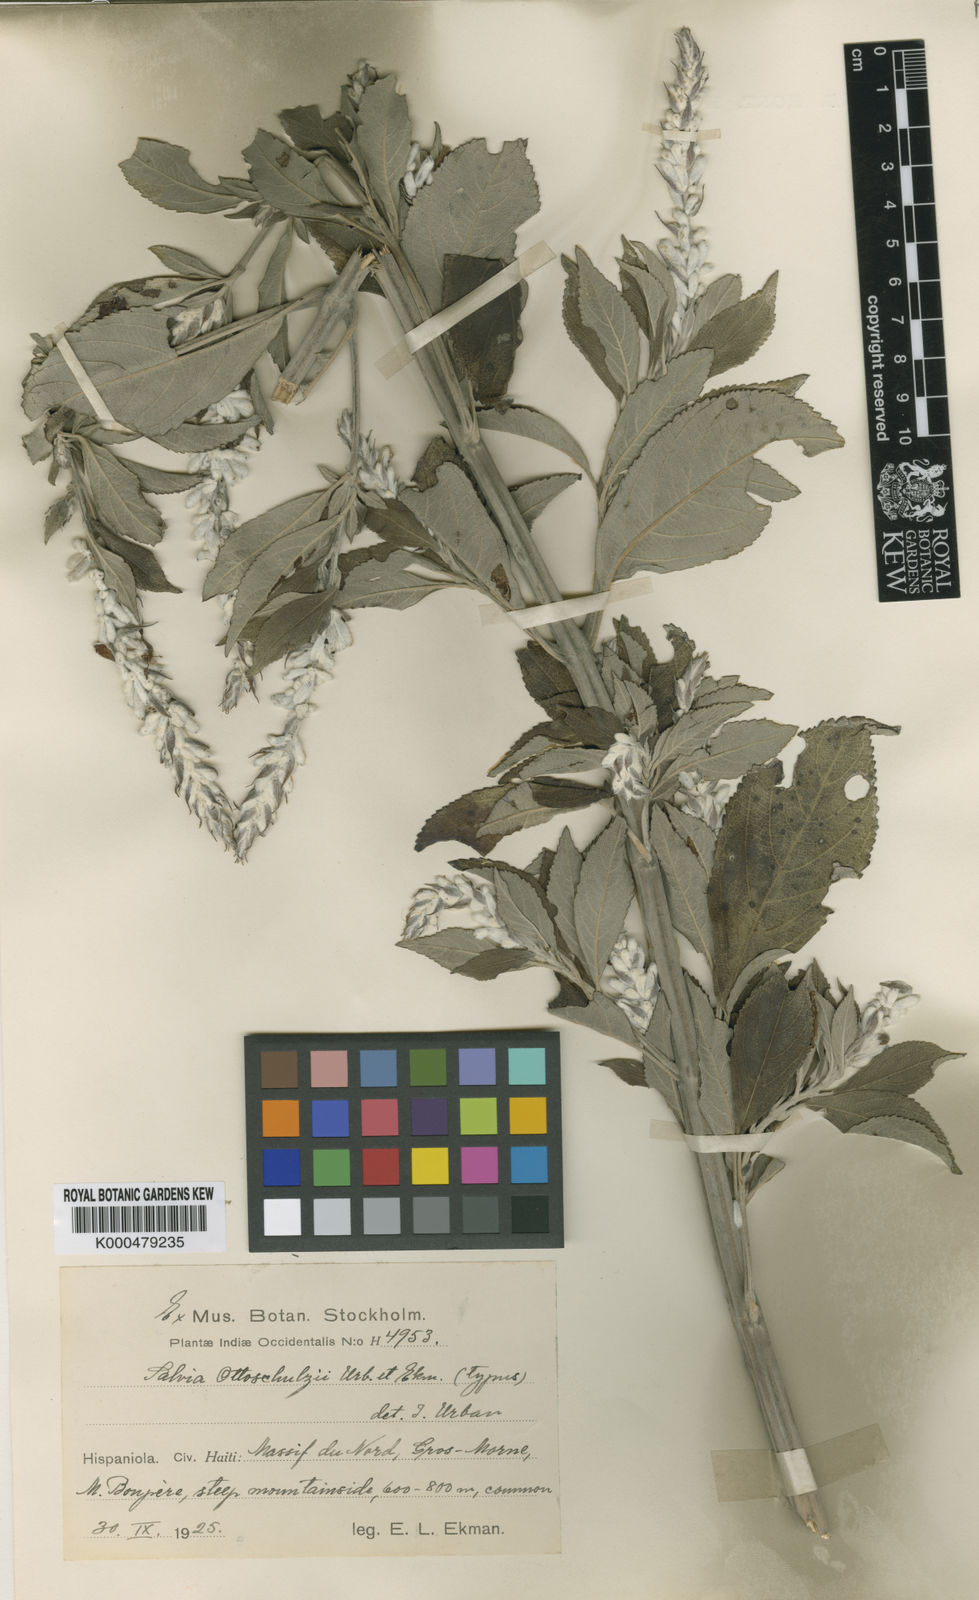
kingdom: Plantae
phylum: Tracheophyta
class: Magnoliopsida
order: Lamiales
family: Lamiaceae
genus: Salvia
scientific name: Salvia lachnaioclada
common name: Sosúa sage
